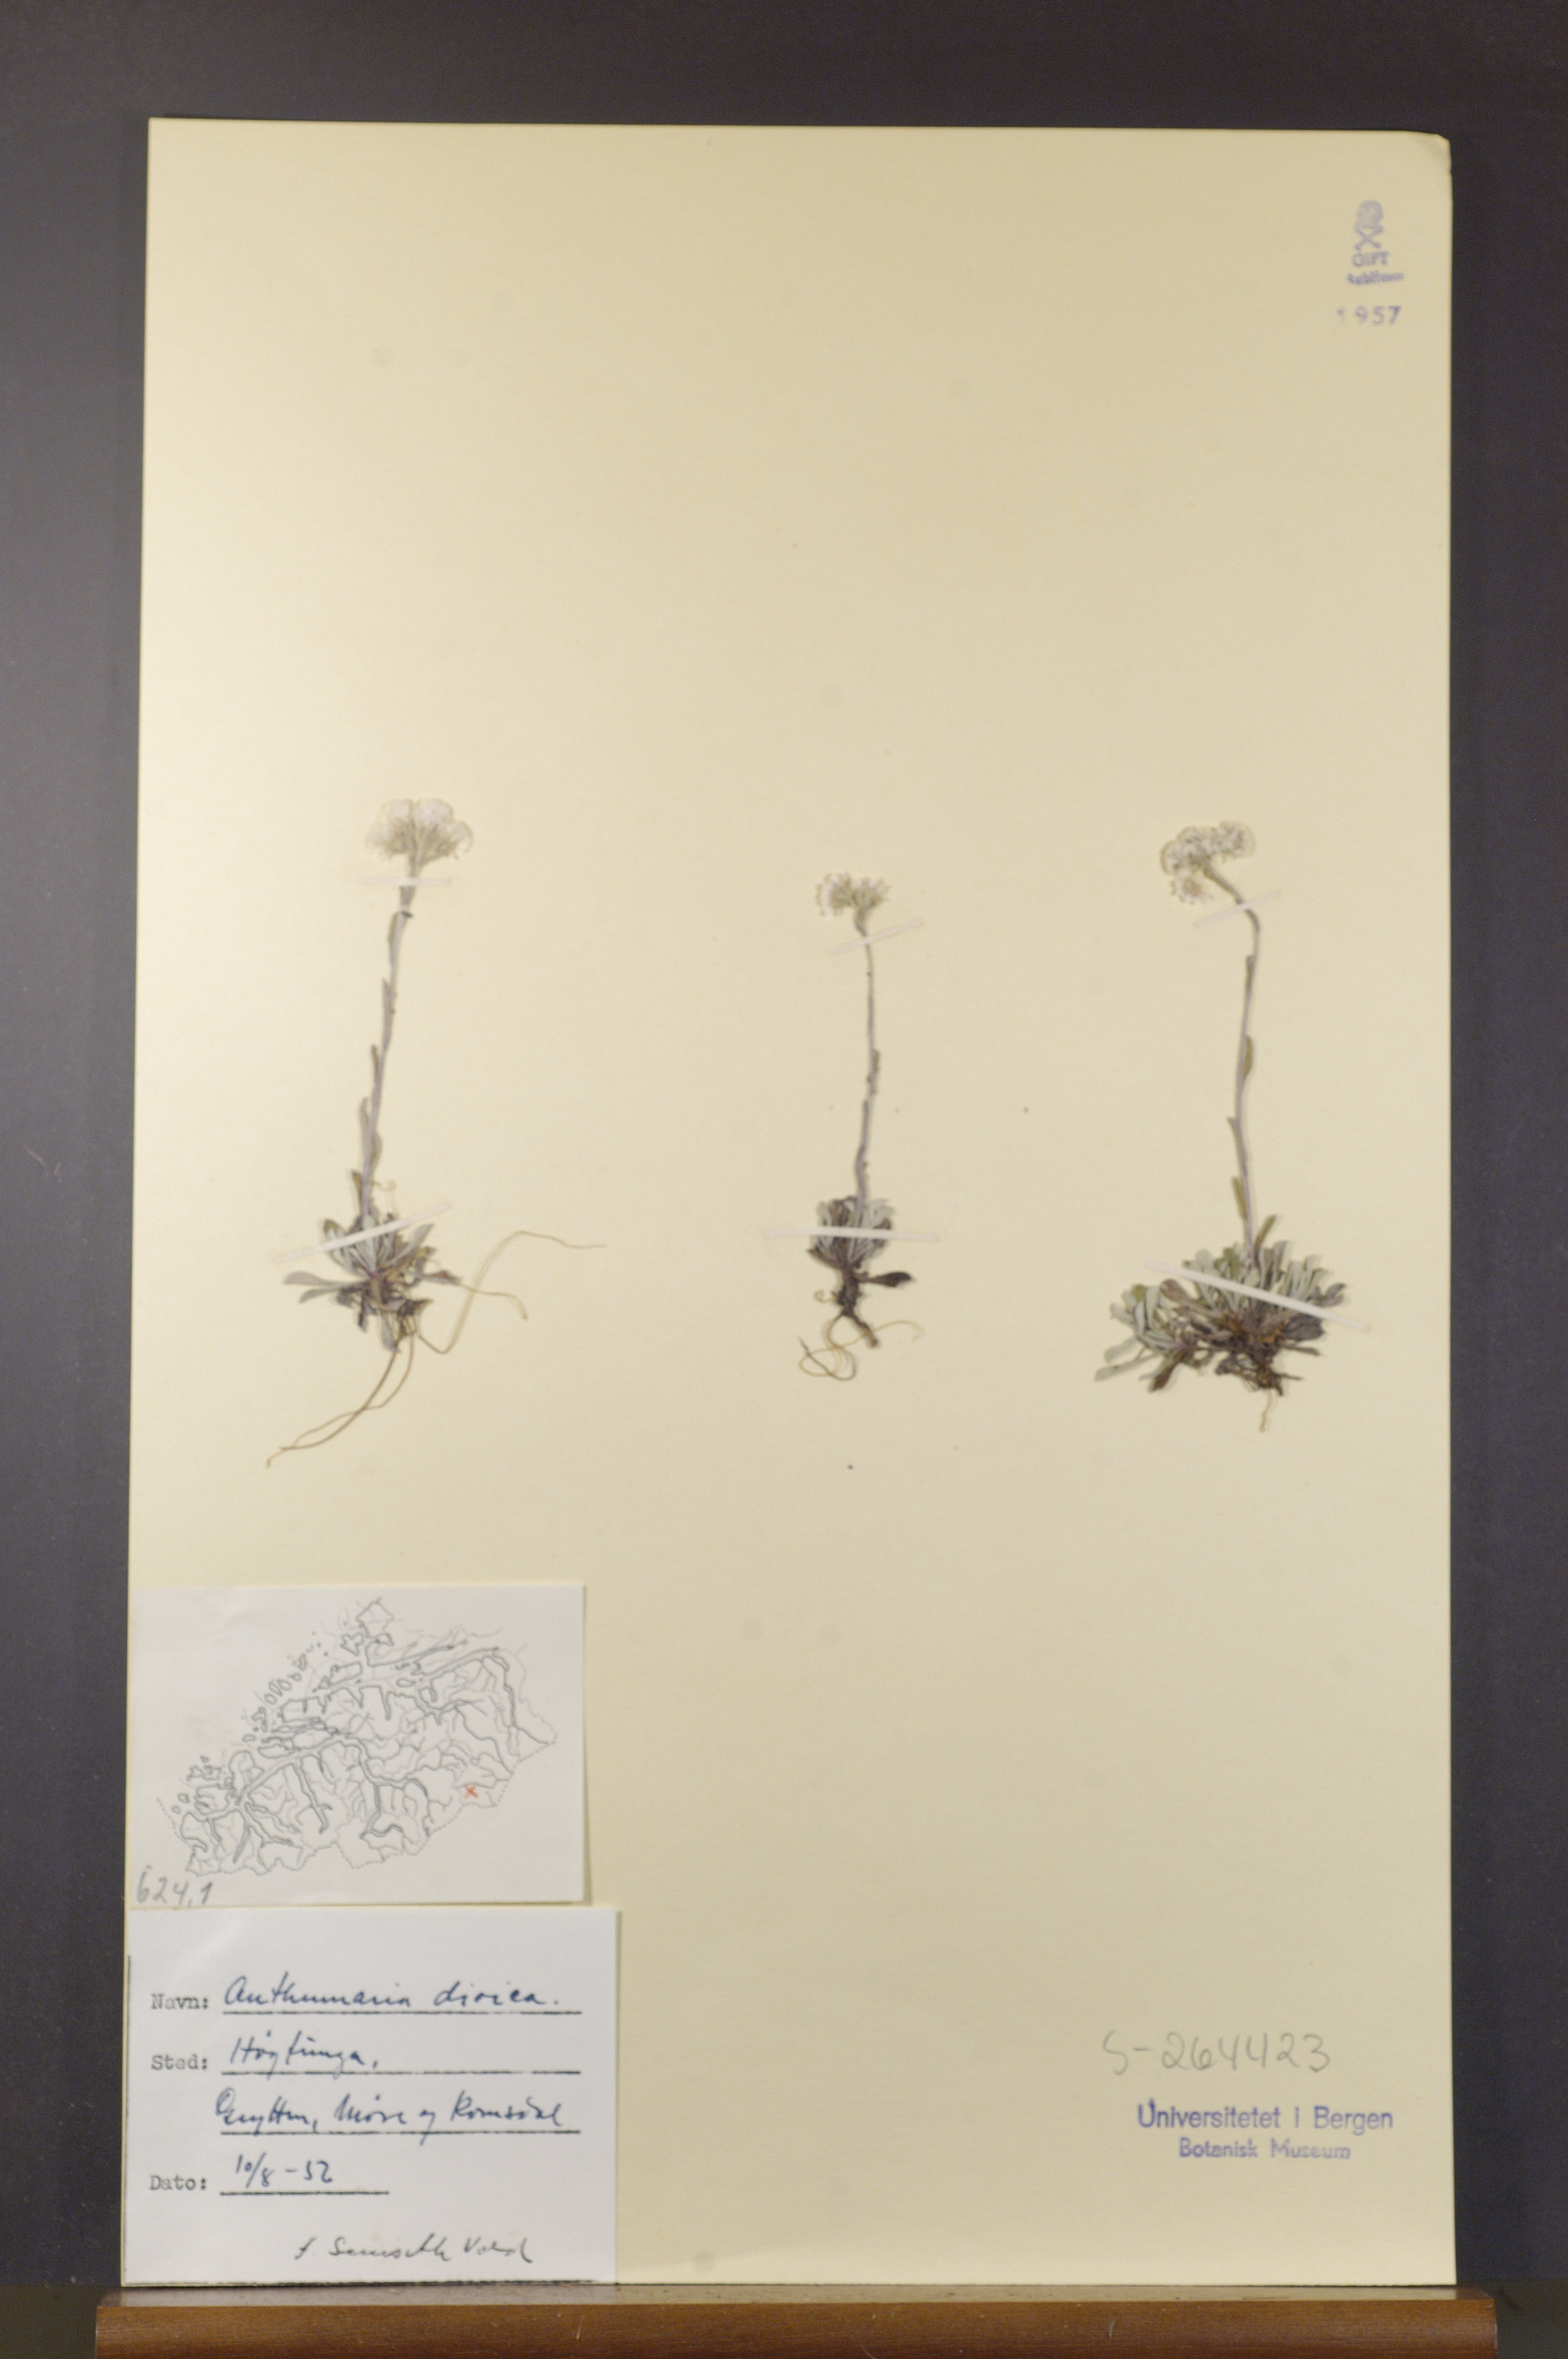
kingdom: Plantae
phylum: Tracheophyta
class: Magnoliopsida
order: Asterales
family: Asteraceae
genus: Antennaria
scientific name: Antennaria dioica
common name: Mountain everlasting
